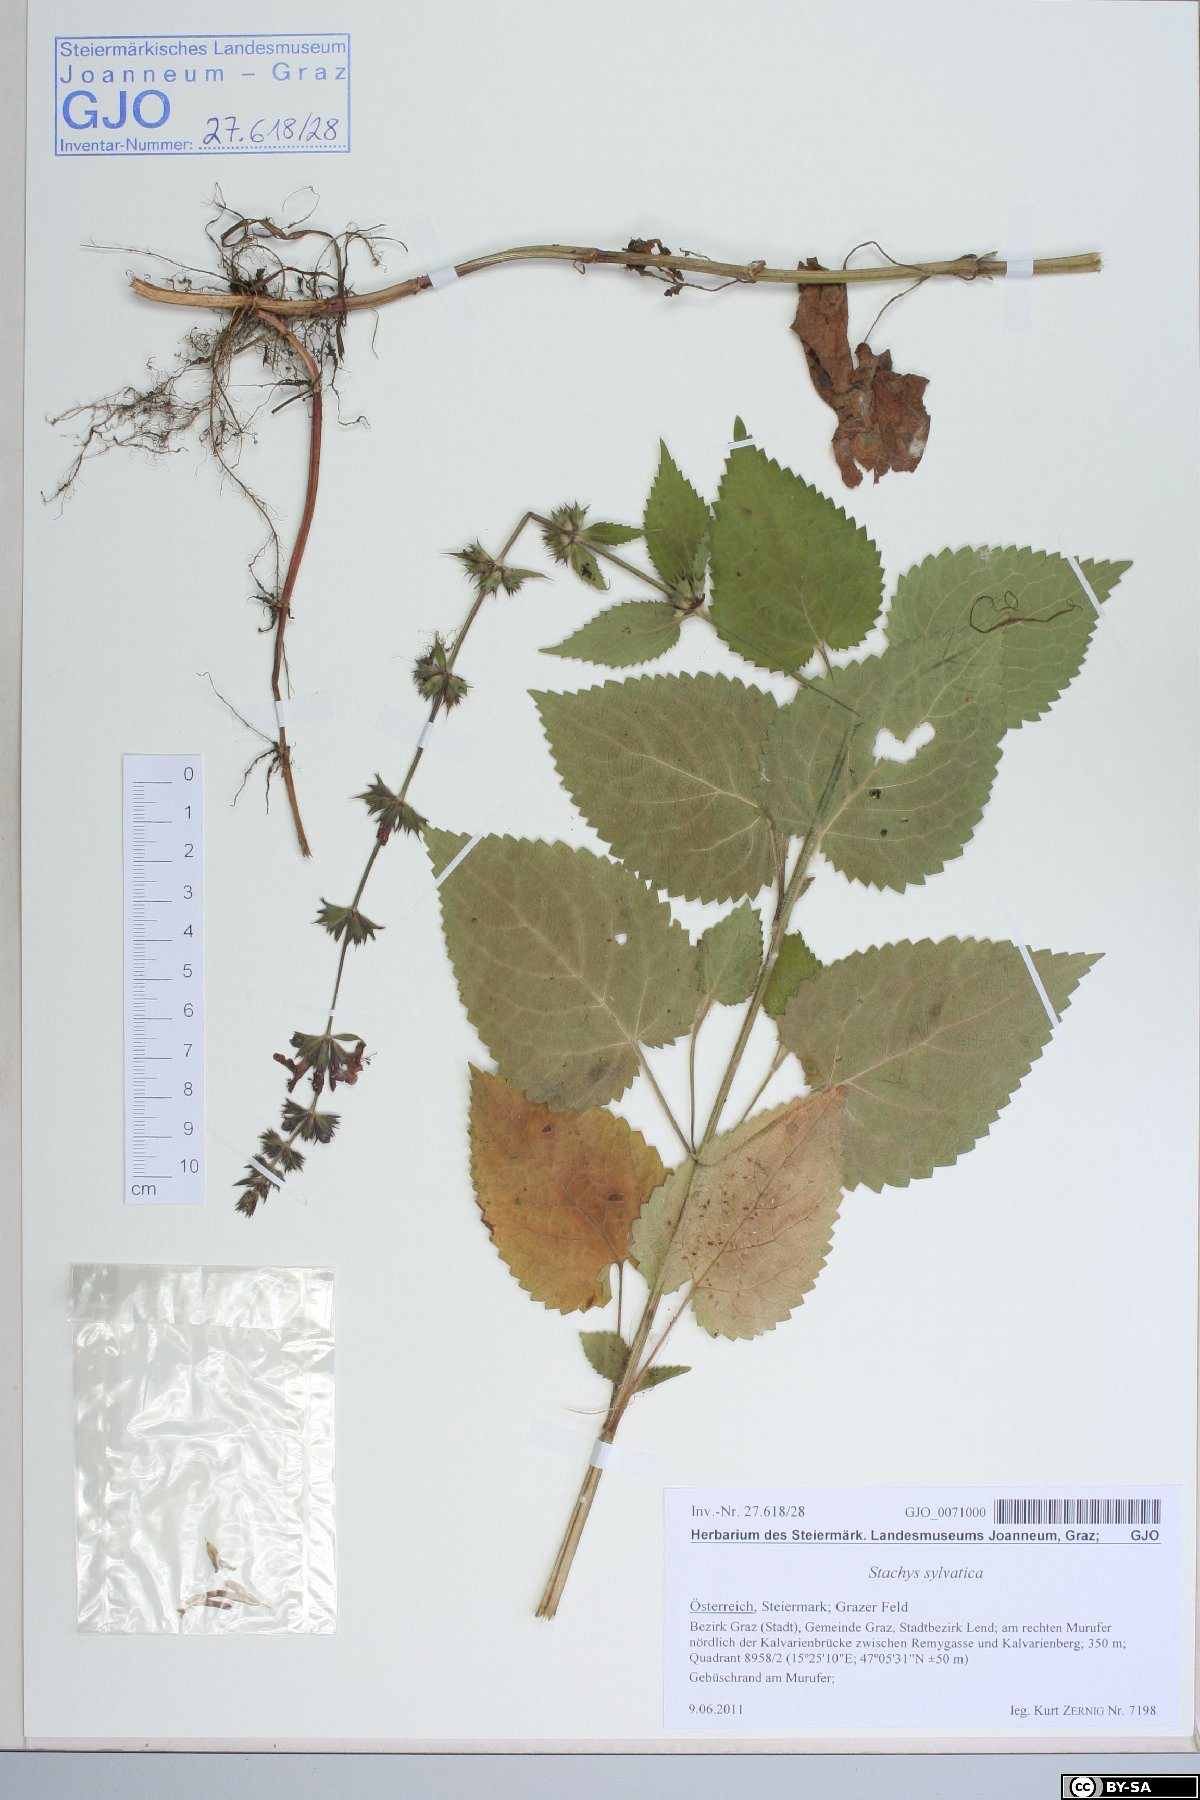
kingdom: Plantae
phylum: Tracheophyta
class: Magnoliopsida
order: Lamiales
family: Lamiaceae
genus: Stachys
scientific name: Stachys sylvatica
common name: Hedge woundwort
